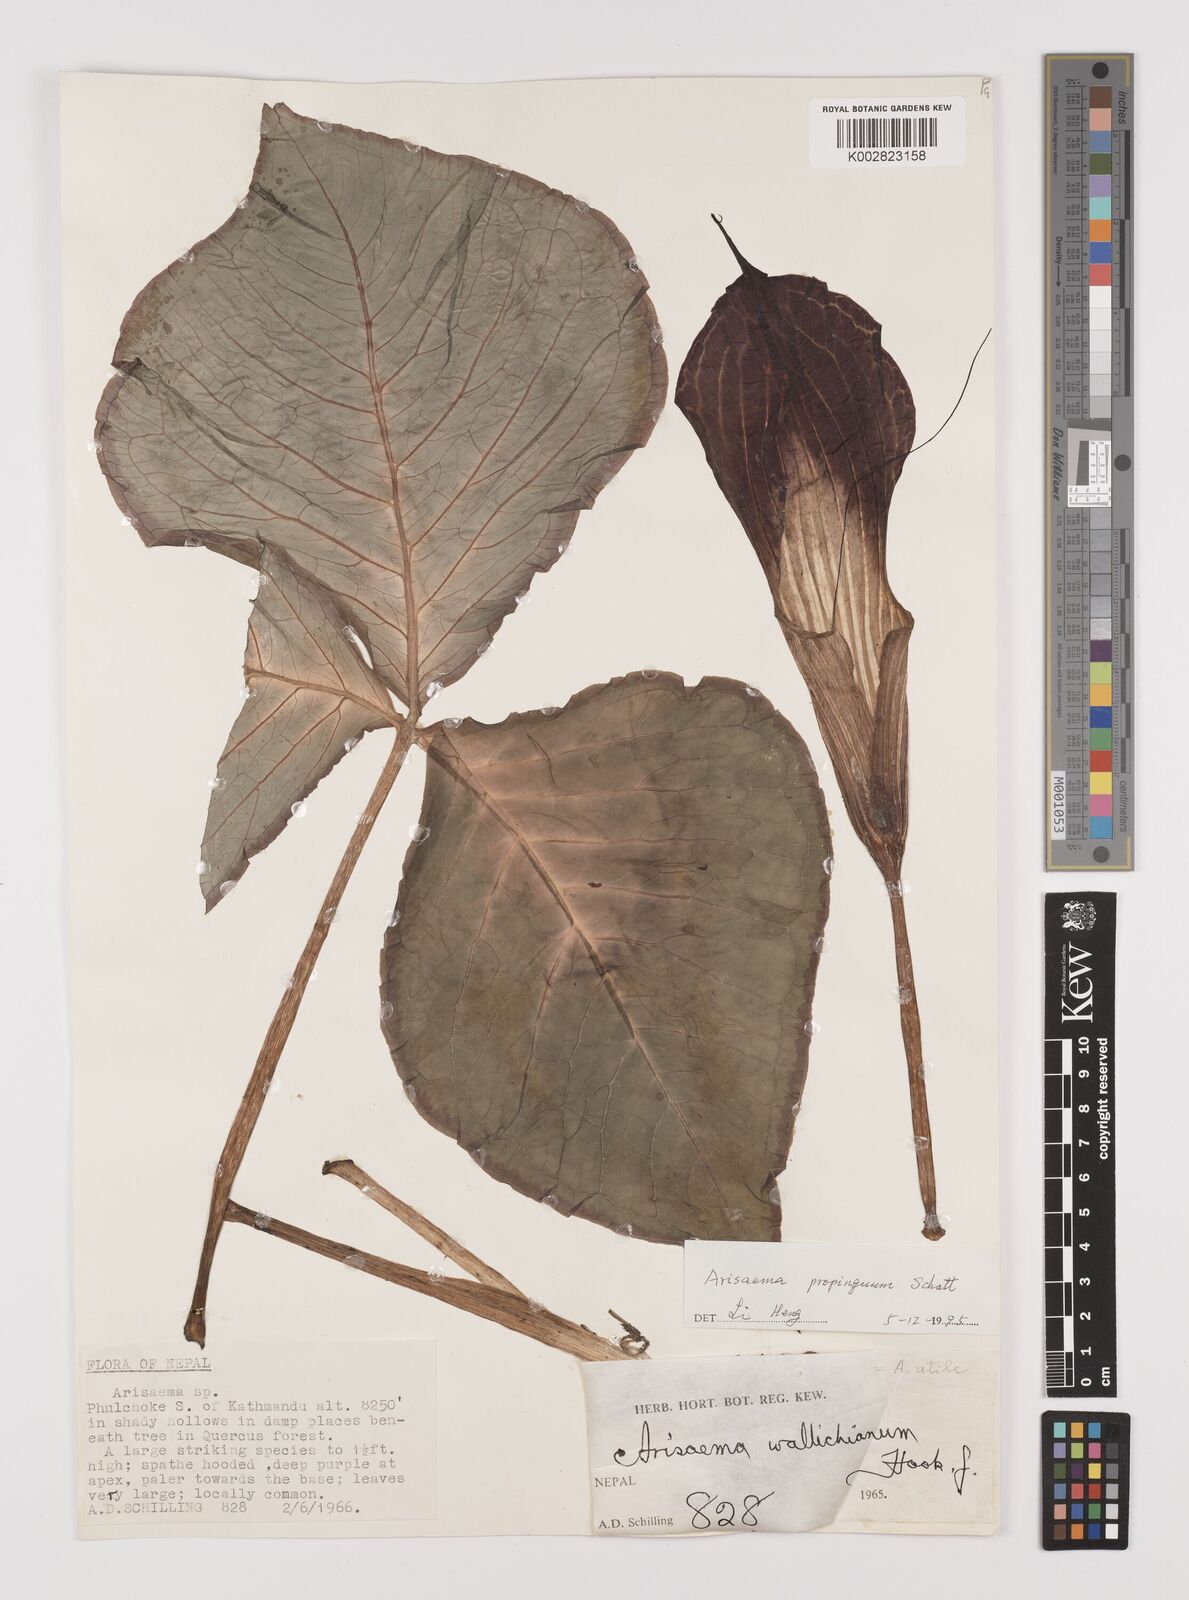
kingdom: Plantae
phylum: Tracheophyta
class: Liliopsida
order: Alismatales
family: Araceae
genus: Arisaema
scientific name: Arisaema propinquum
